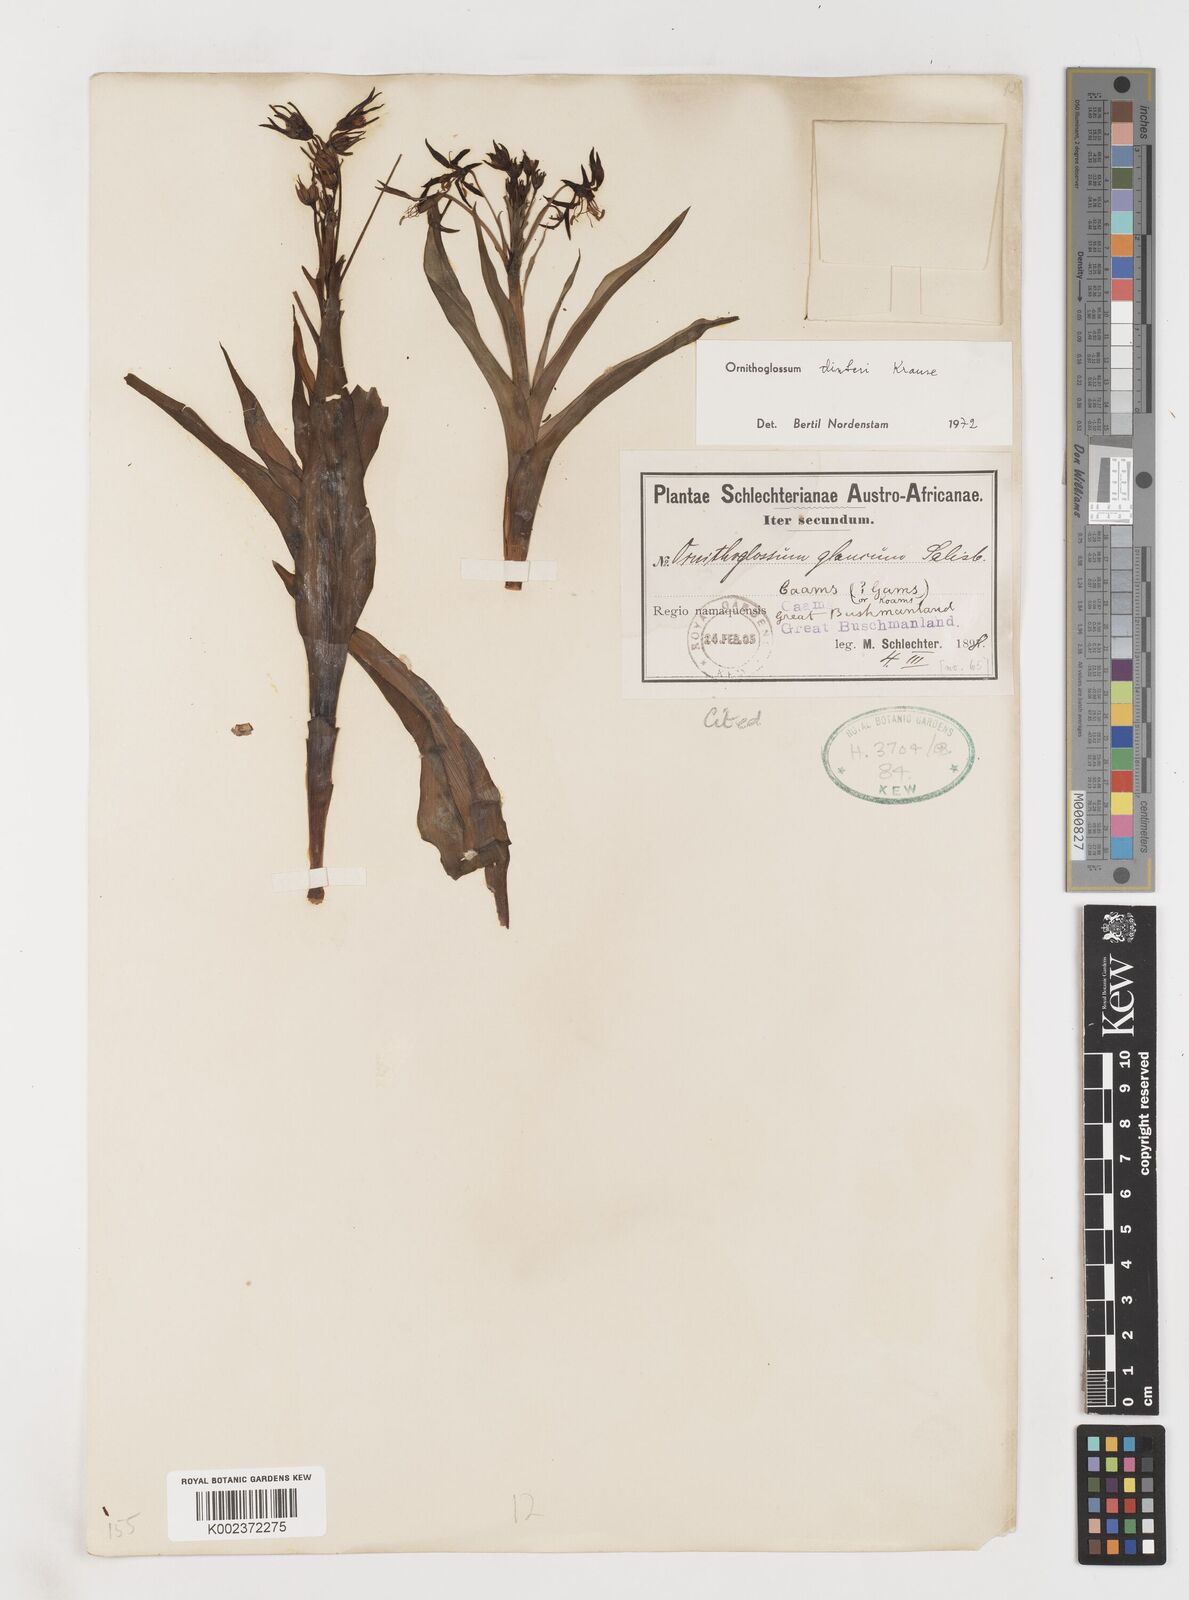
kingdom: Plantae
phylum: Tracheophyta
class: Liliopsida
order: Liliales
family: Colchicaceae
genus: Ornithoglossum
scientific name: Ornithoglossum dinteri
